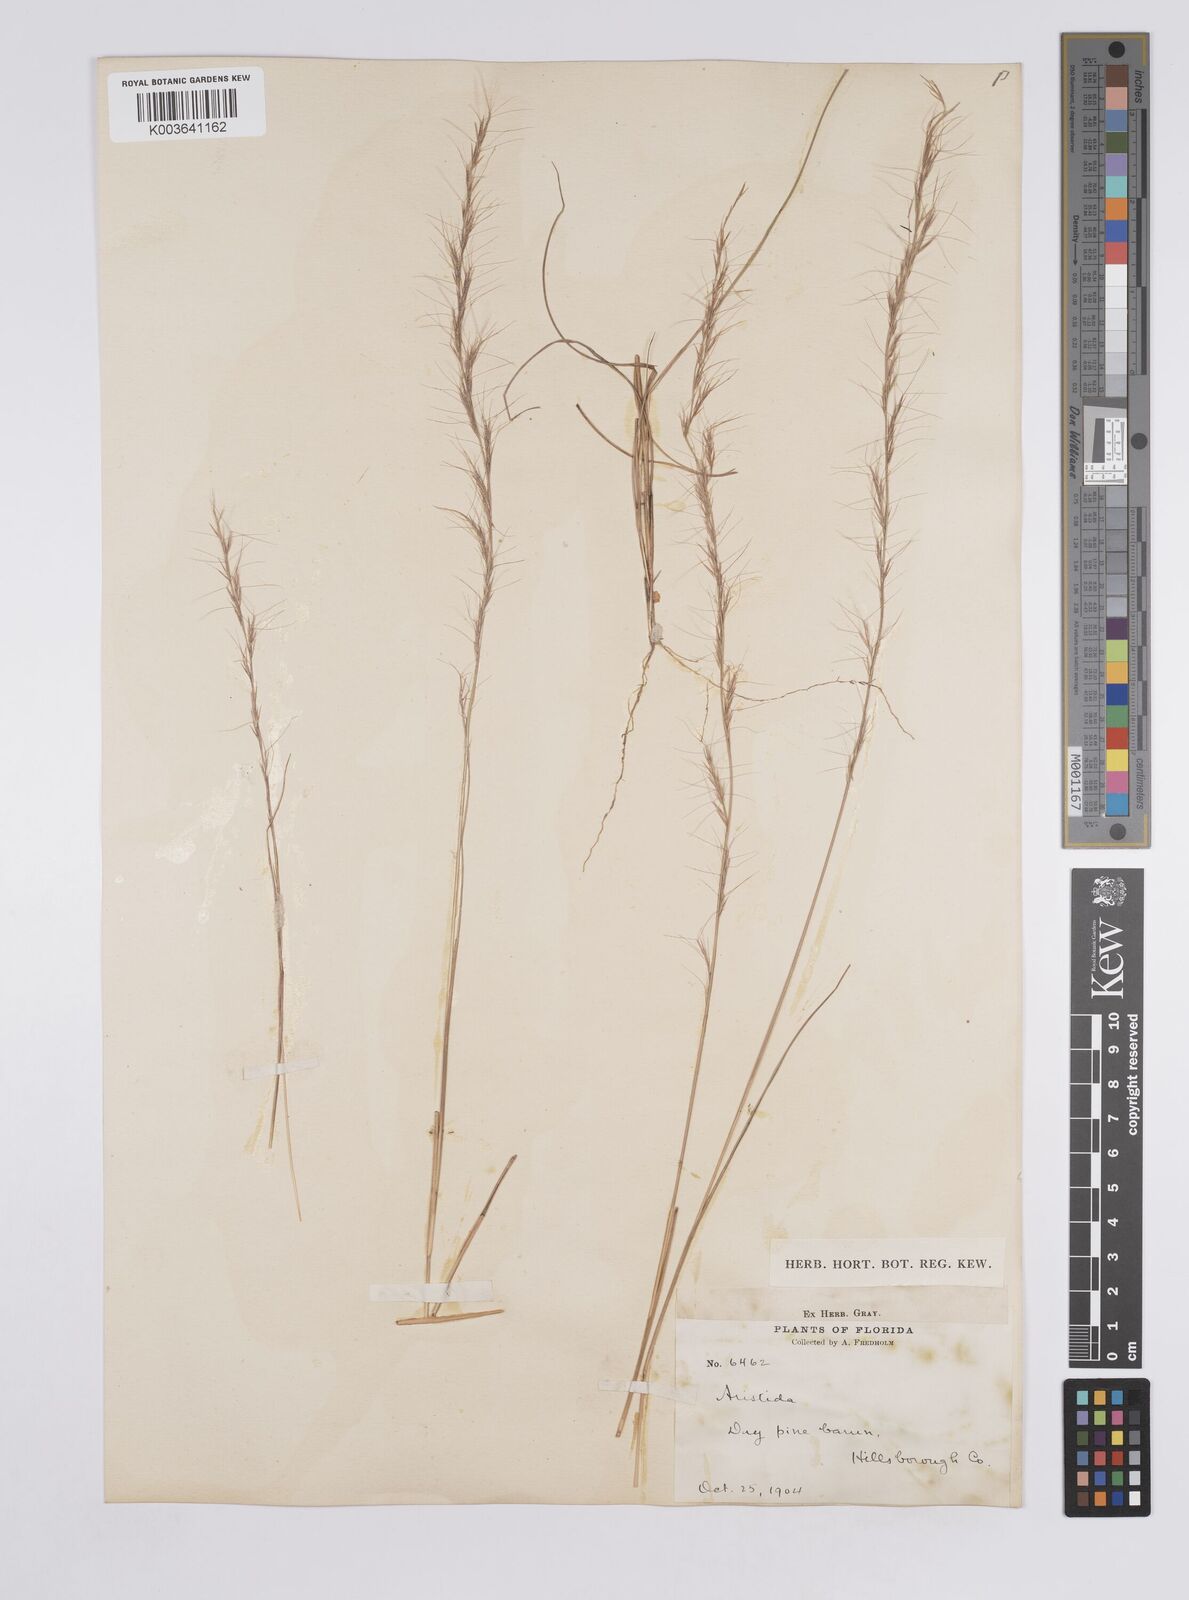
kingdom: Plantae
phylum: Tracheophyta
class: Liliopsida
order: Poales
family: Poaceae
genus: Aristida
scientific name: Aristida
